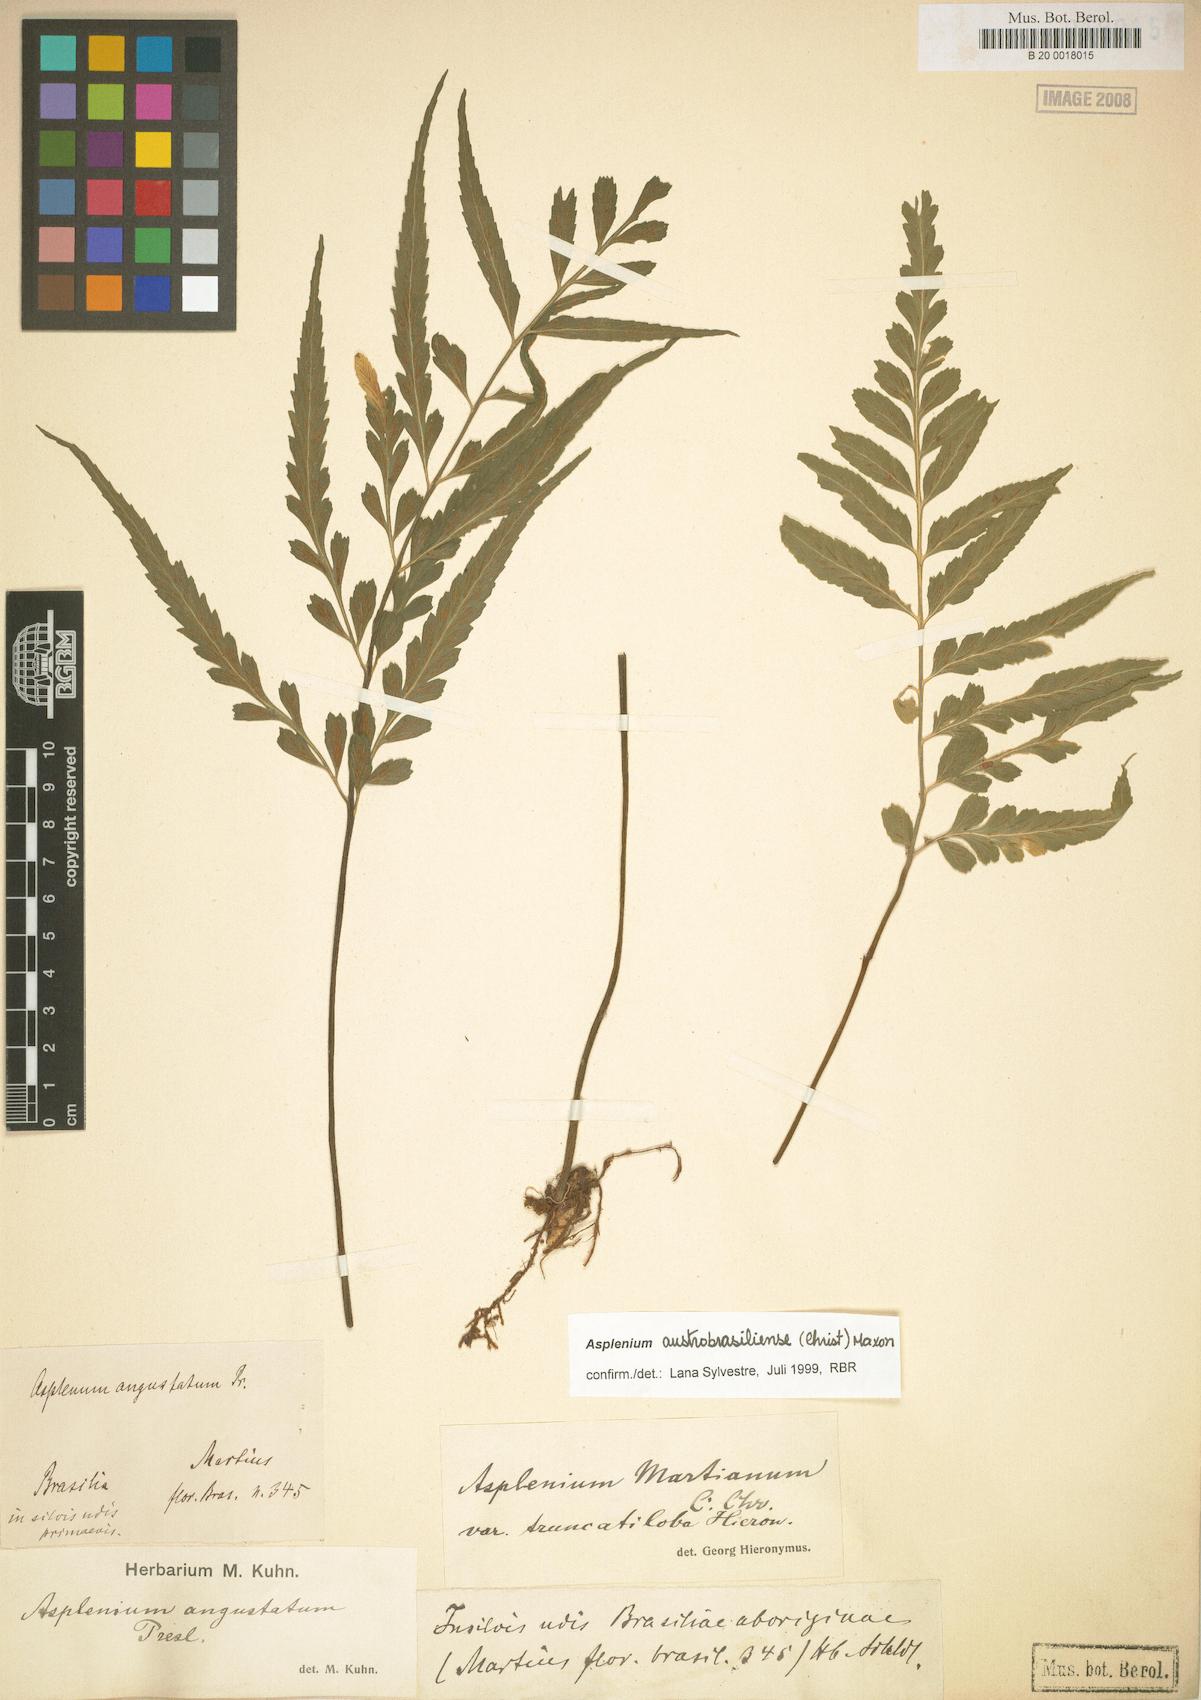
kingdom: Plantae
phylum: Tracheophyta
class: Polypodiopsida
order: Polypodiales
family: Aspleniaceae
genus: Asplenium
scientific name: Asplenium austrobrasiliense
